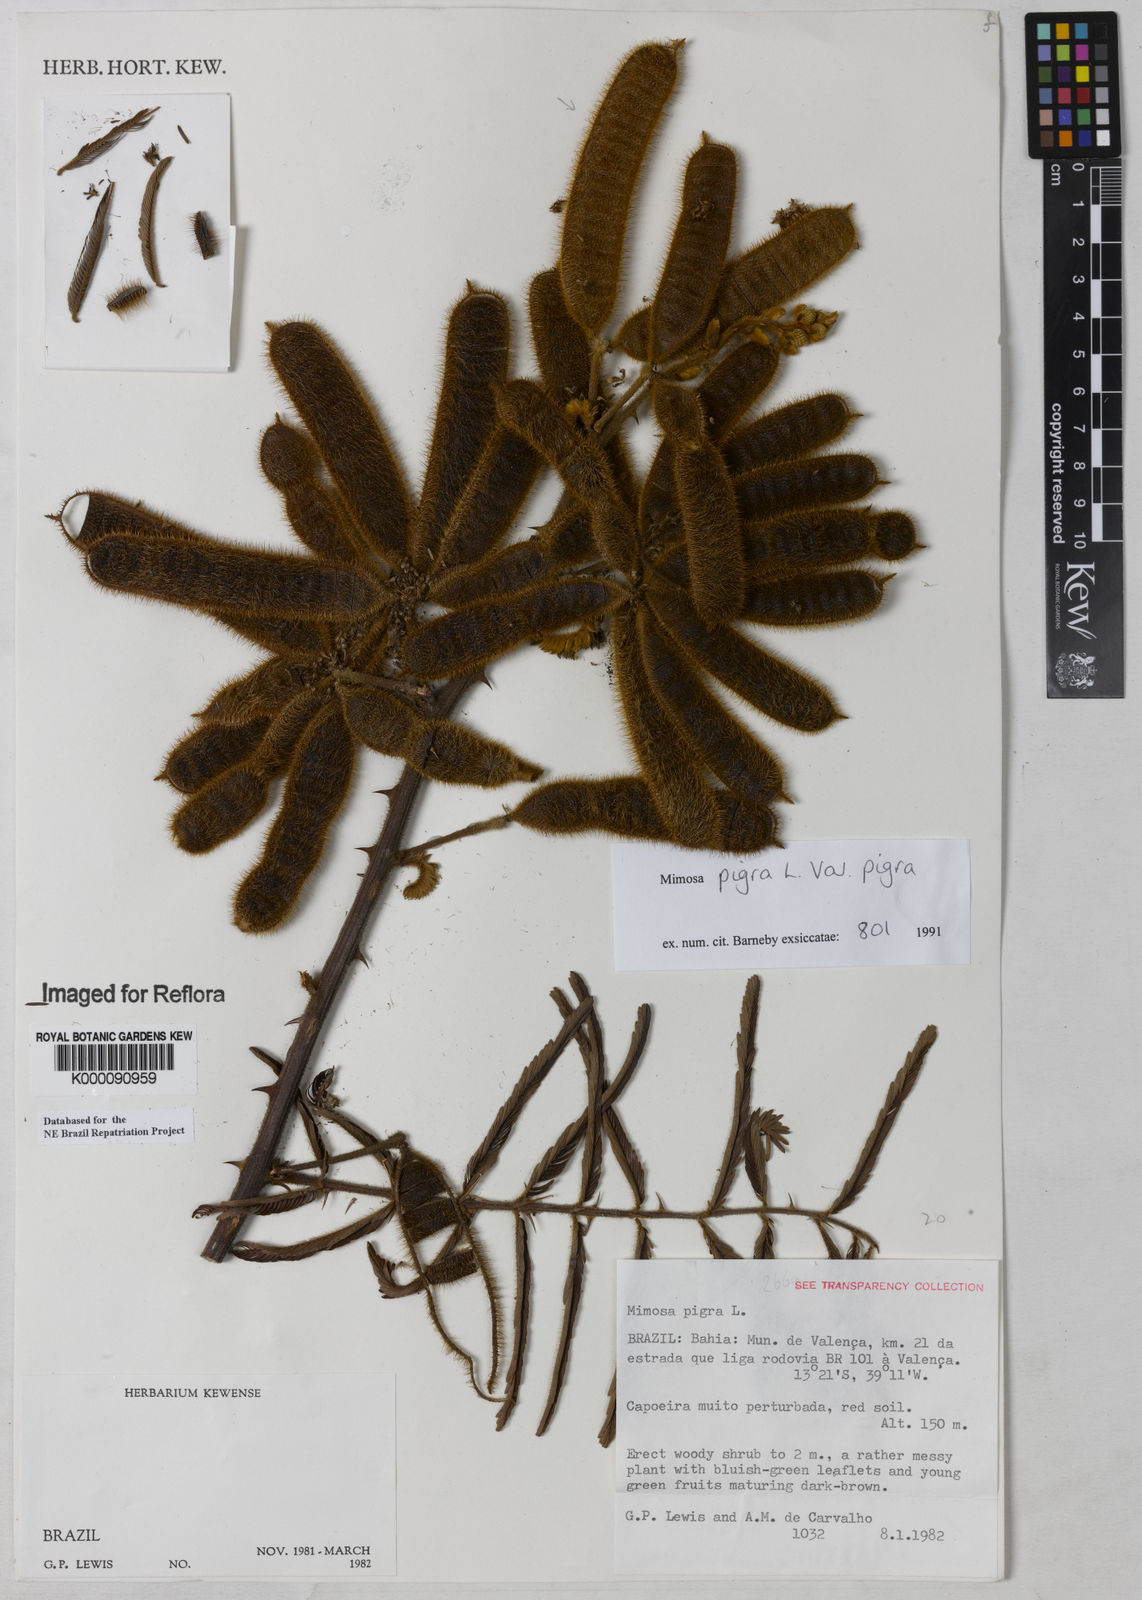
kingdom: Plantae
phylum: Tracheophyta
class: Magnoliopsida
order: Fabales
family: Fabaceae
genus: Mimosa
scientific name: Mimosa pigra
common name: Black mimosa
